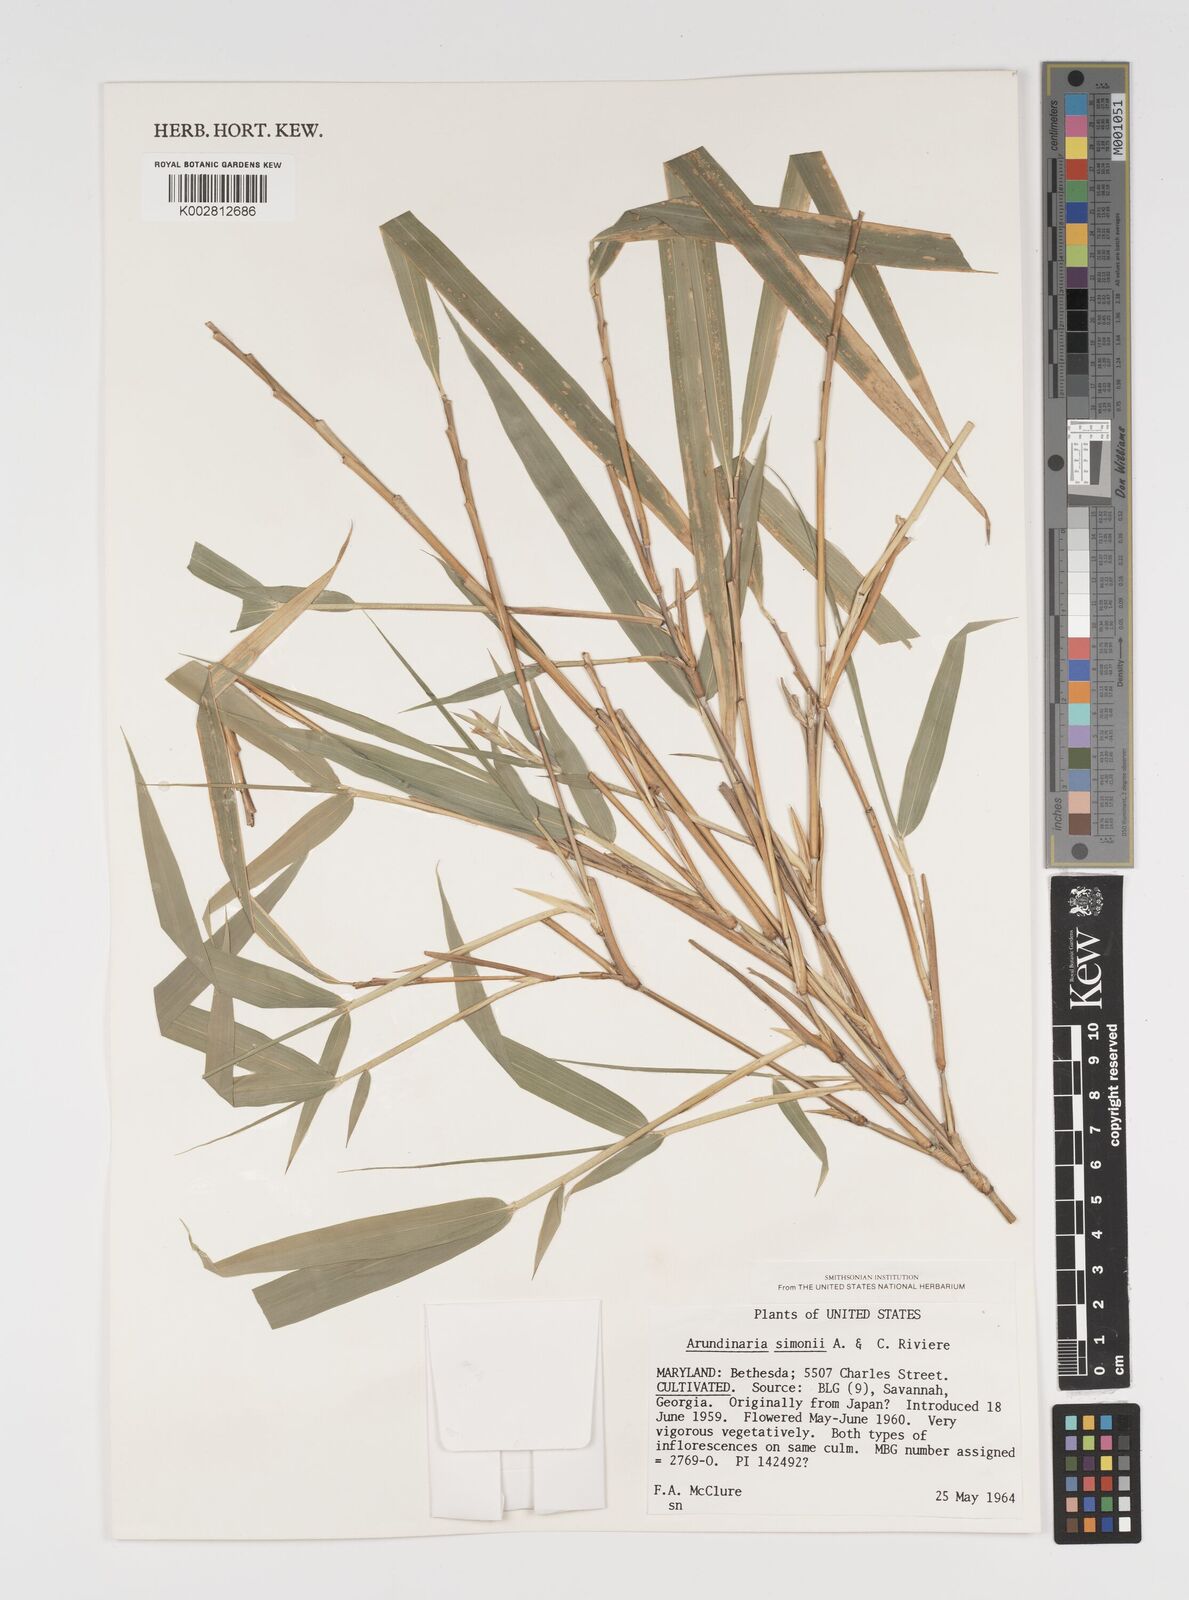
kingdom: Plantae
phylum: Tracheophyta
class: Liliopsida
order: Poales
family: Poaceae
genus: Pleioblastus
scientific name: Pleioblastus simonii
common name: Simon bamboo
